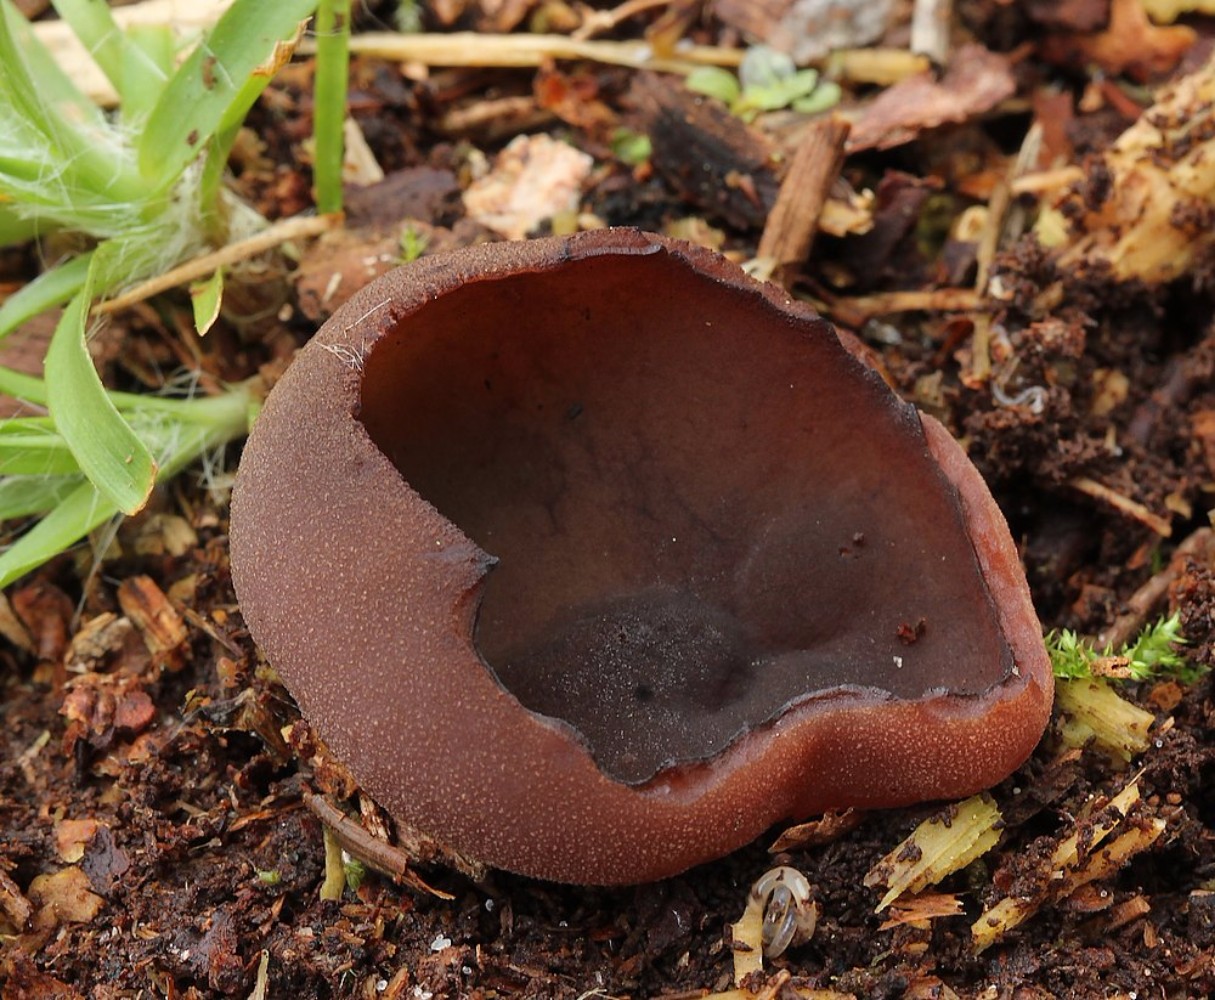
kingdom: Fungi
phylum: Ascomycota
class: Pezizomycetes
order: Pezizales
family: Otideaceae
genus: Otidea
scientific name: Otidea bufonia
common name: brun ørebæger
